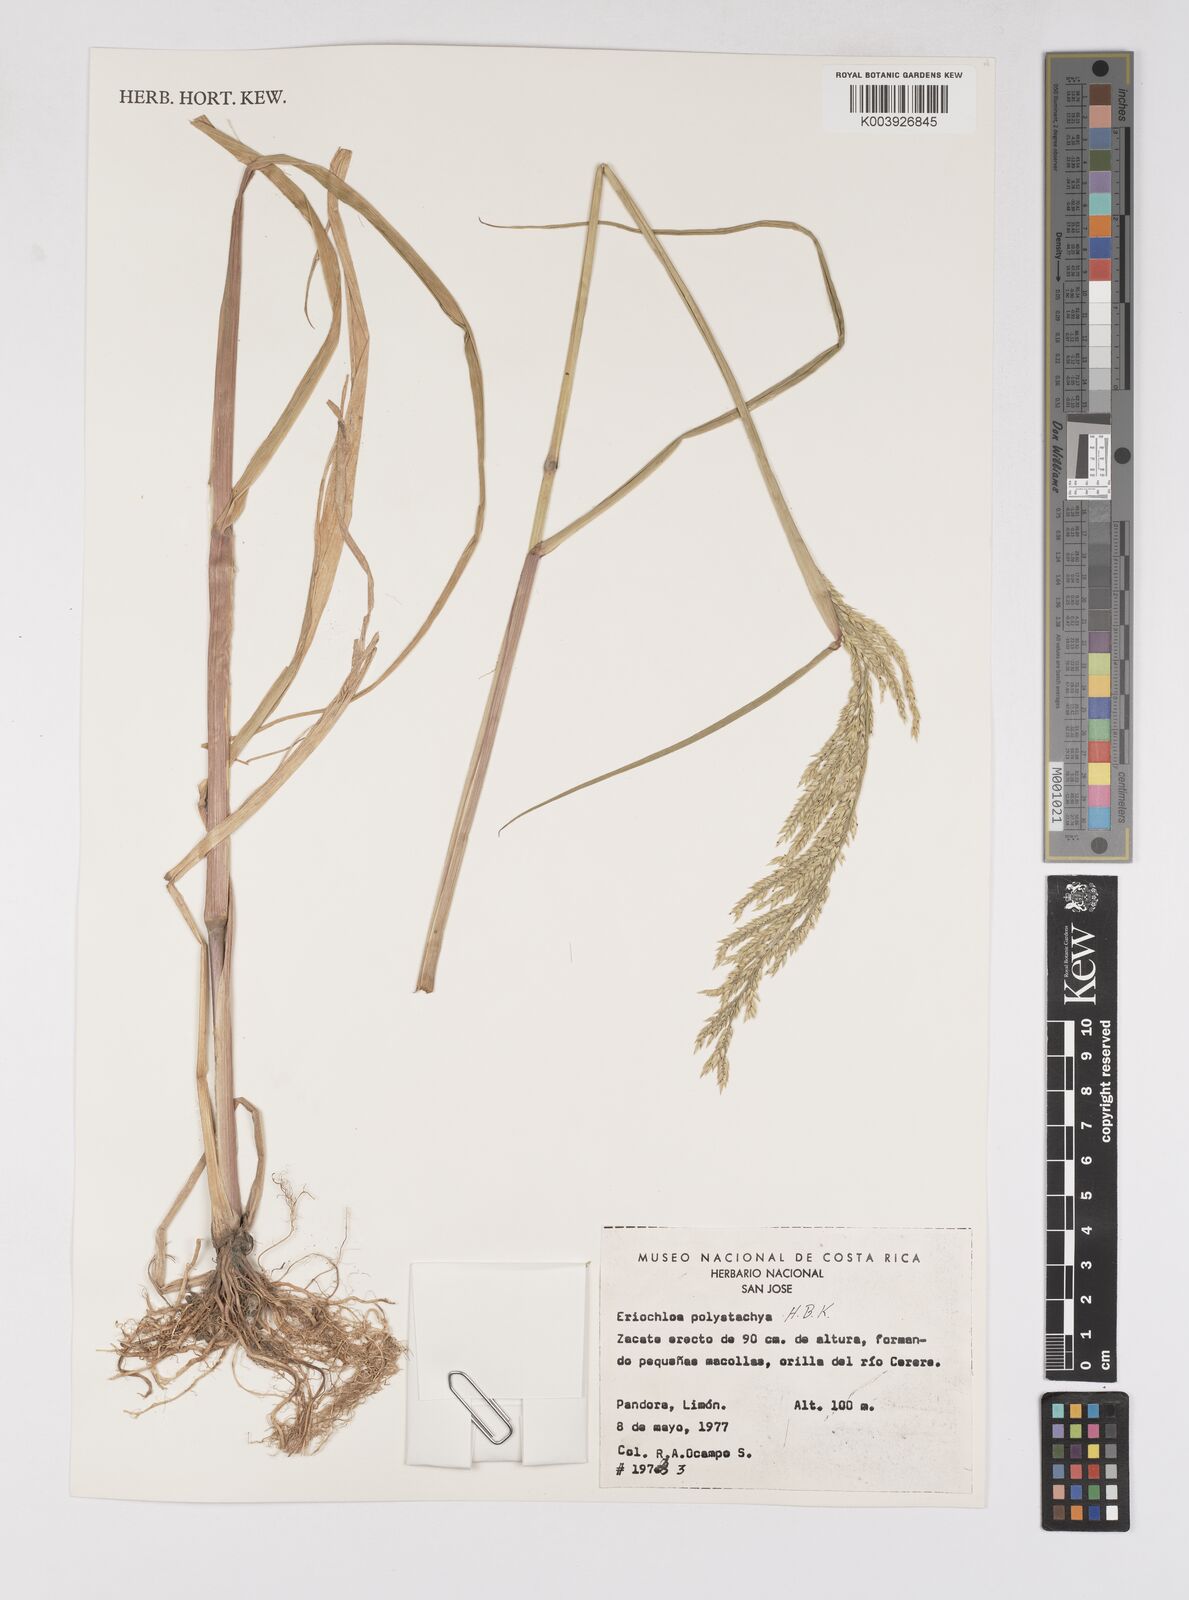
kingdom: Plantae
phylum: Tracheophyta
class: Liliopsida
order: Poales
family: Poaceae
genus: Urochloa
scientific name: Urochloa polystachya
